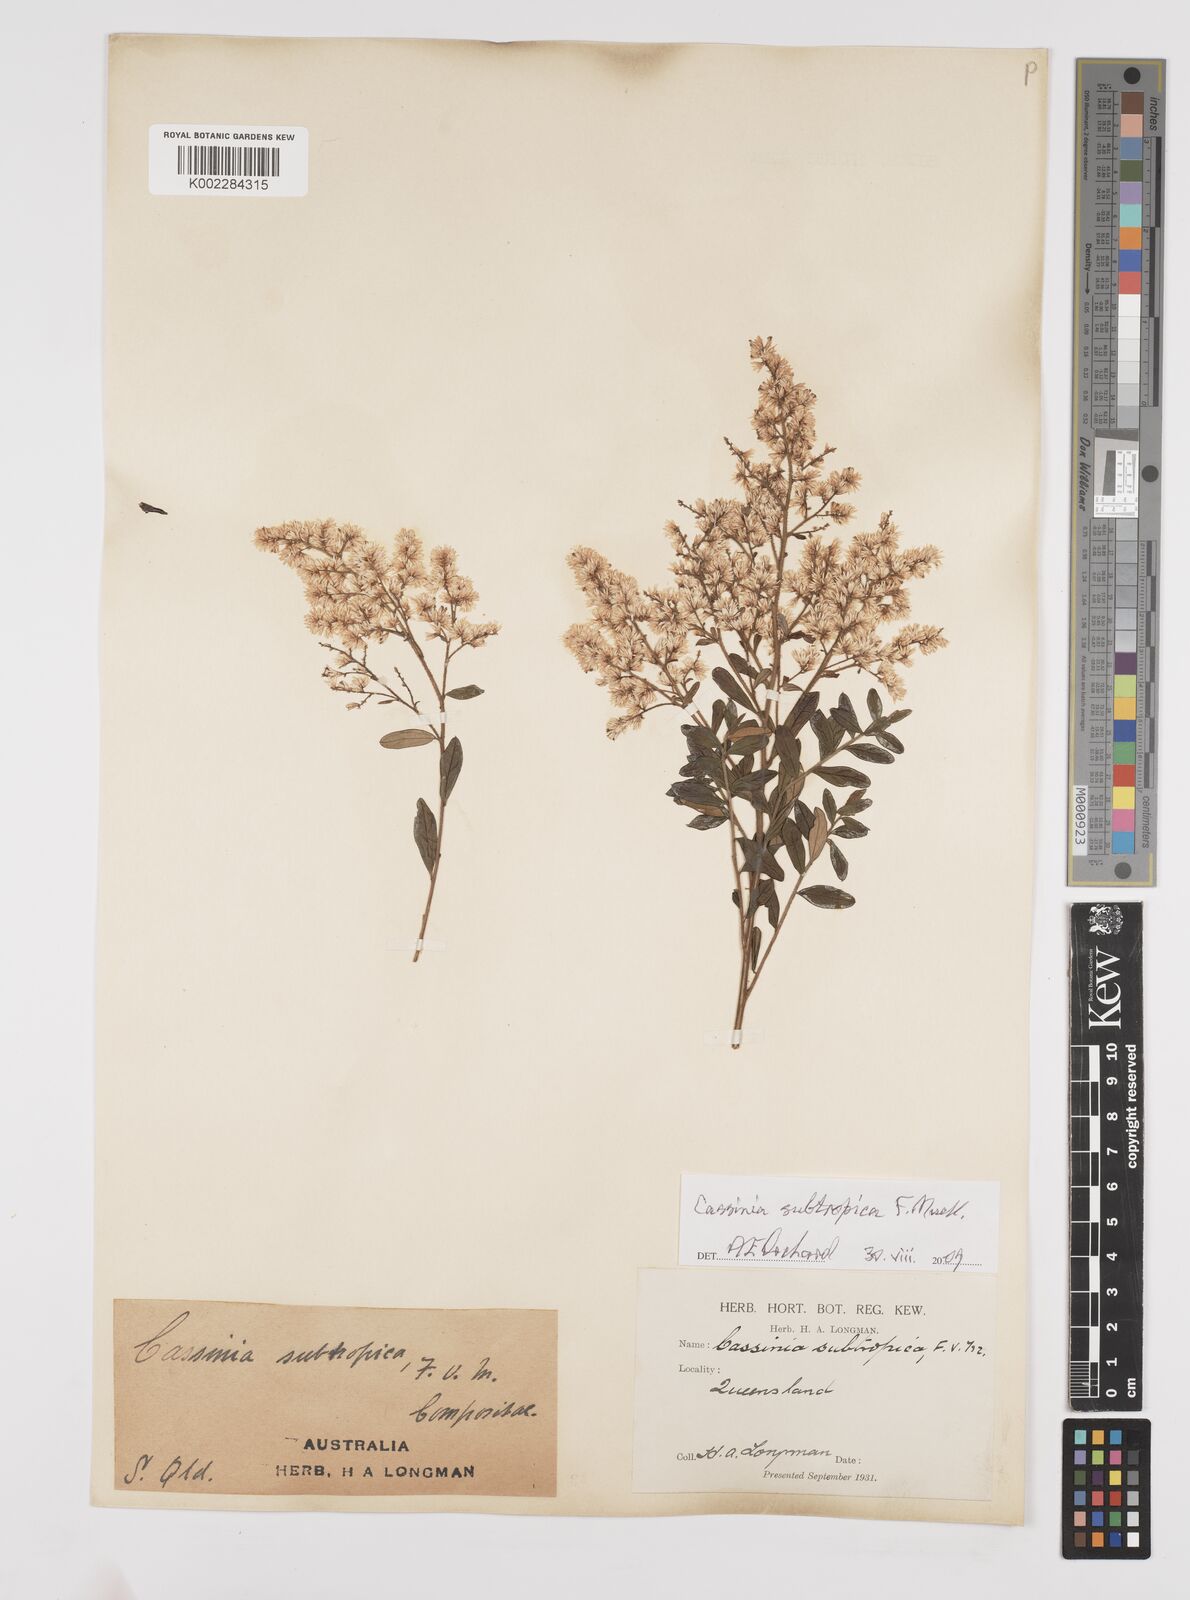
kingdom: Plantae
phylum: Tracheophyta
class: Magnoliopsida
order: Asterales
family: Asteraceae
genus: Cassinia
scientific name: Cassinia subtropica
